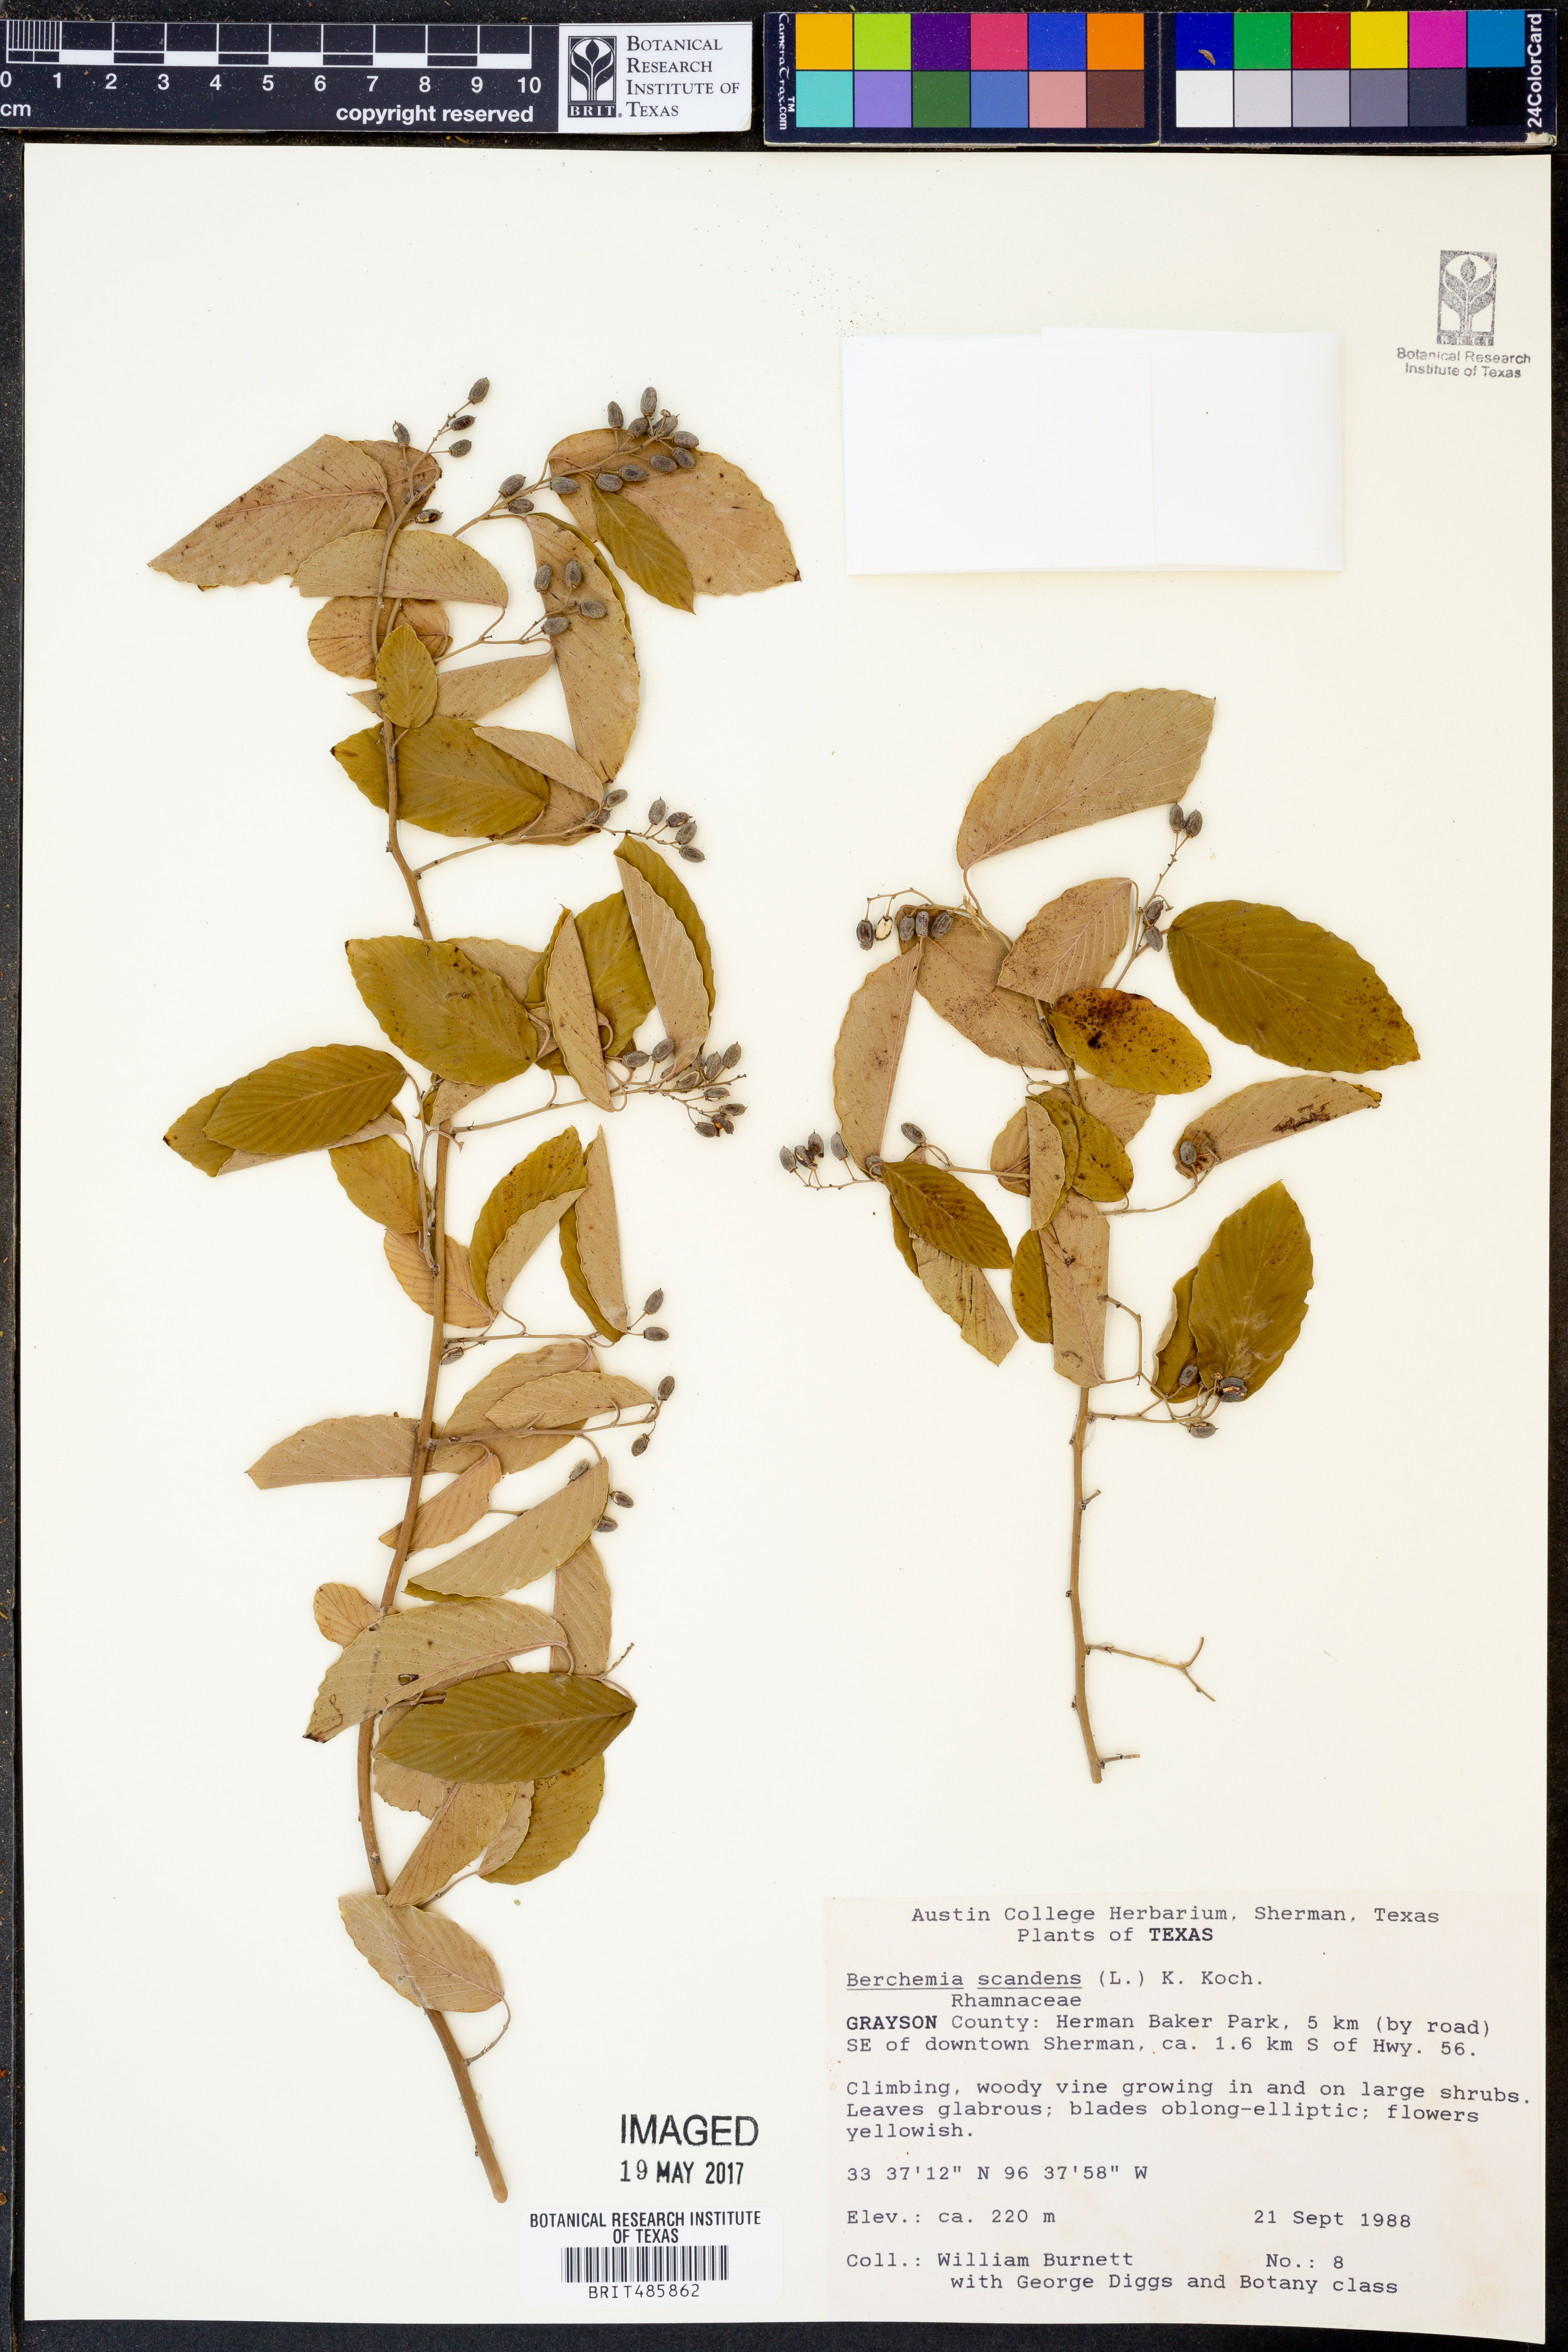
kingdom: Plantae
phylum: Tracheophyta
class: Magnoliopsida
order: Rosales
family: Rhamnaceae
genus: Berchemia
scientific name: Berchemia scandens
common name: Supplejack
